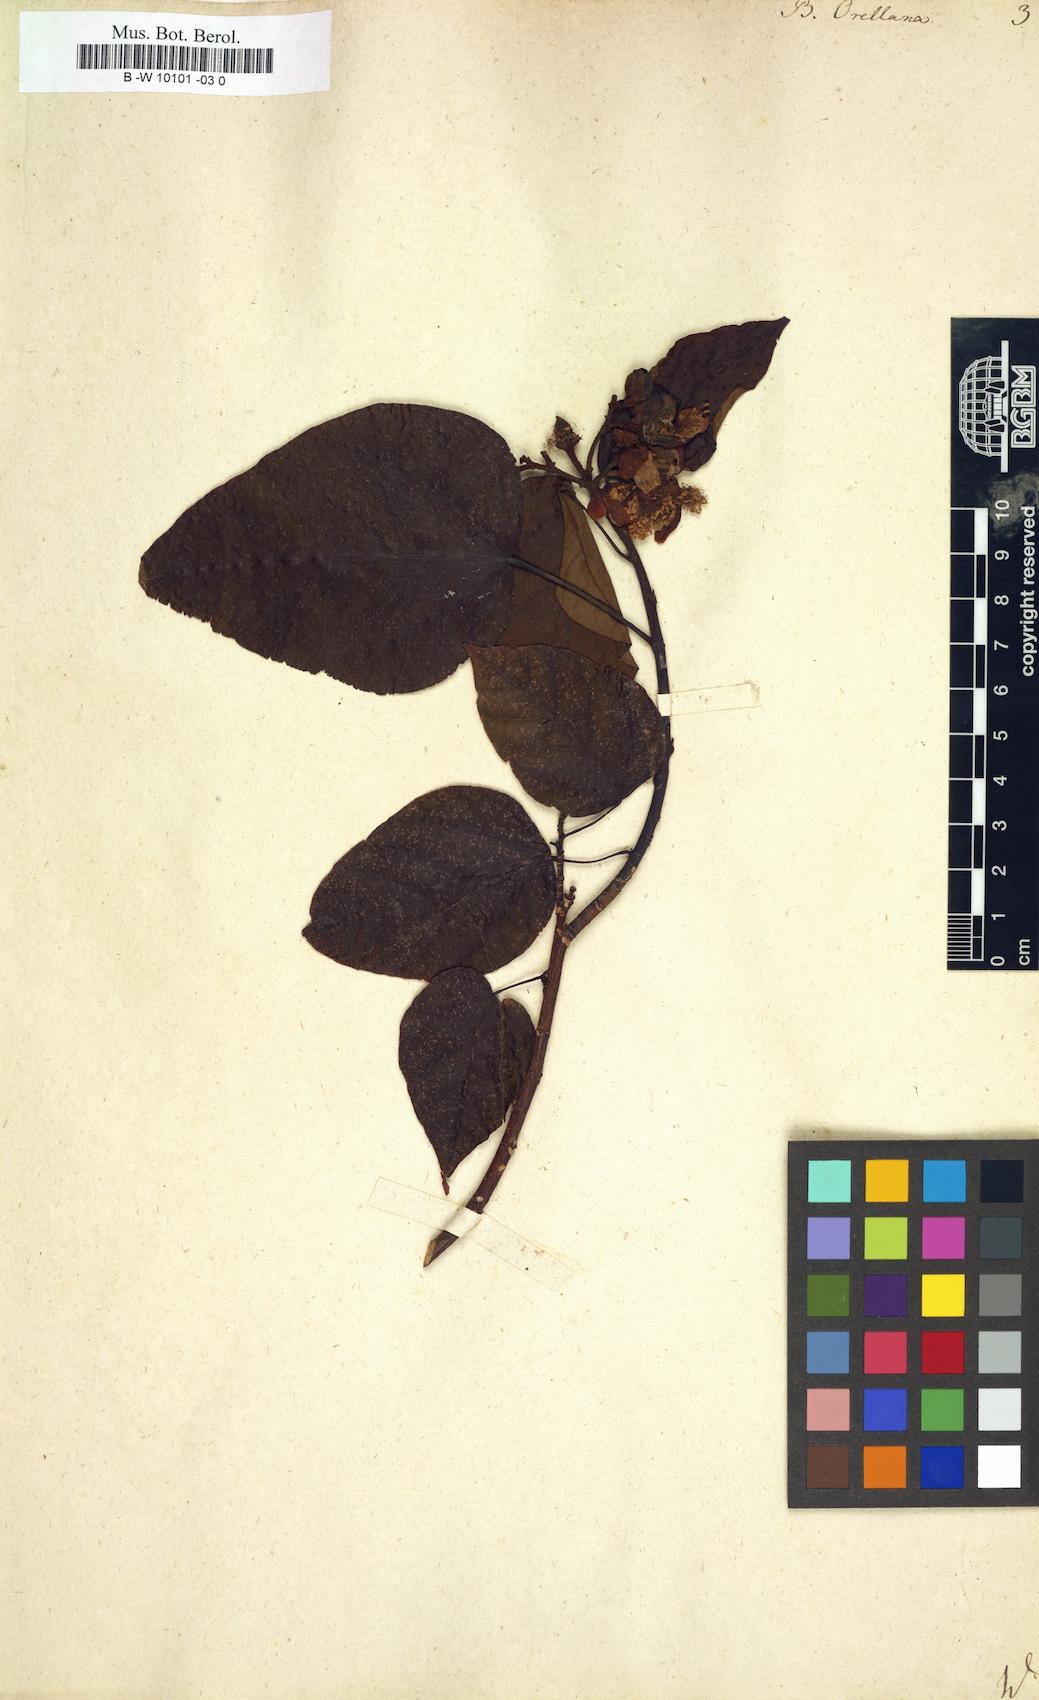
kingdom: Plantae
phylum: Tracheophyta
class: Magnoliopsida
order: Malvales
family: Bixaceae
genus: Bixa
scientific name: Bixa orellana
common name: Lipsticktree
